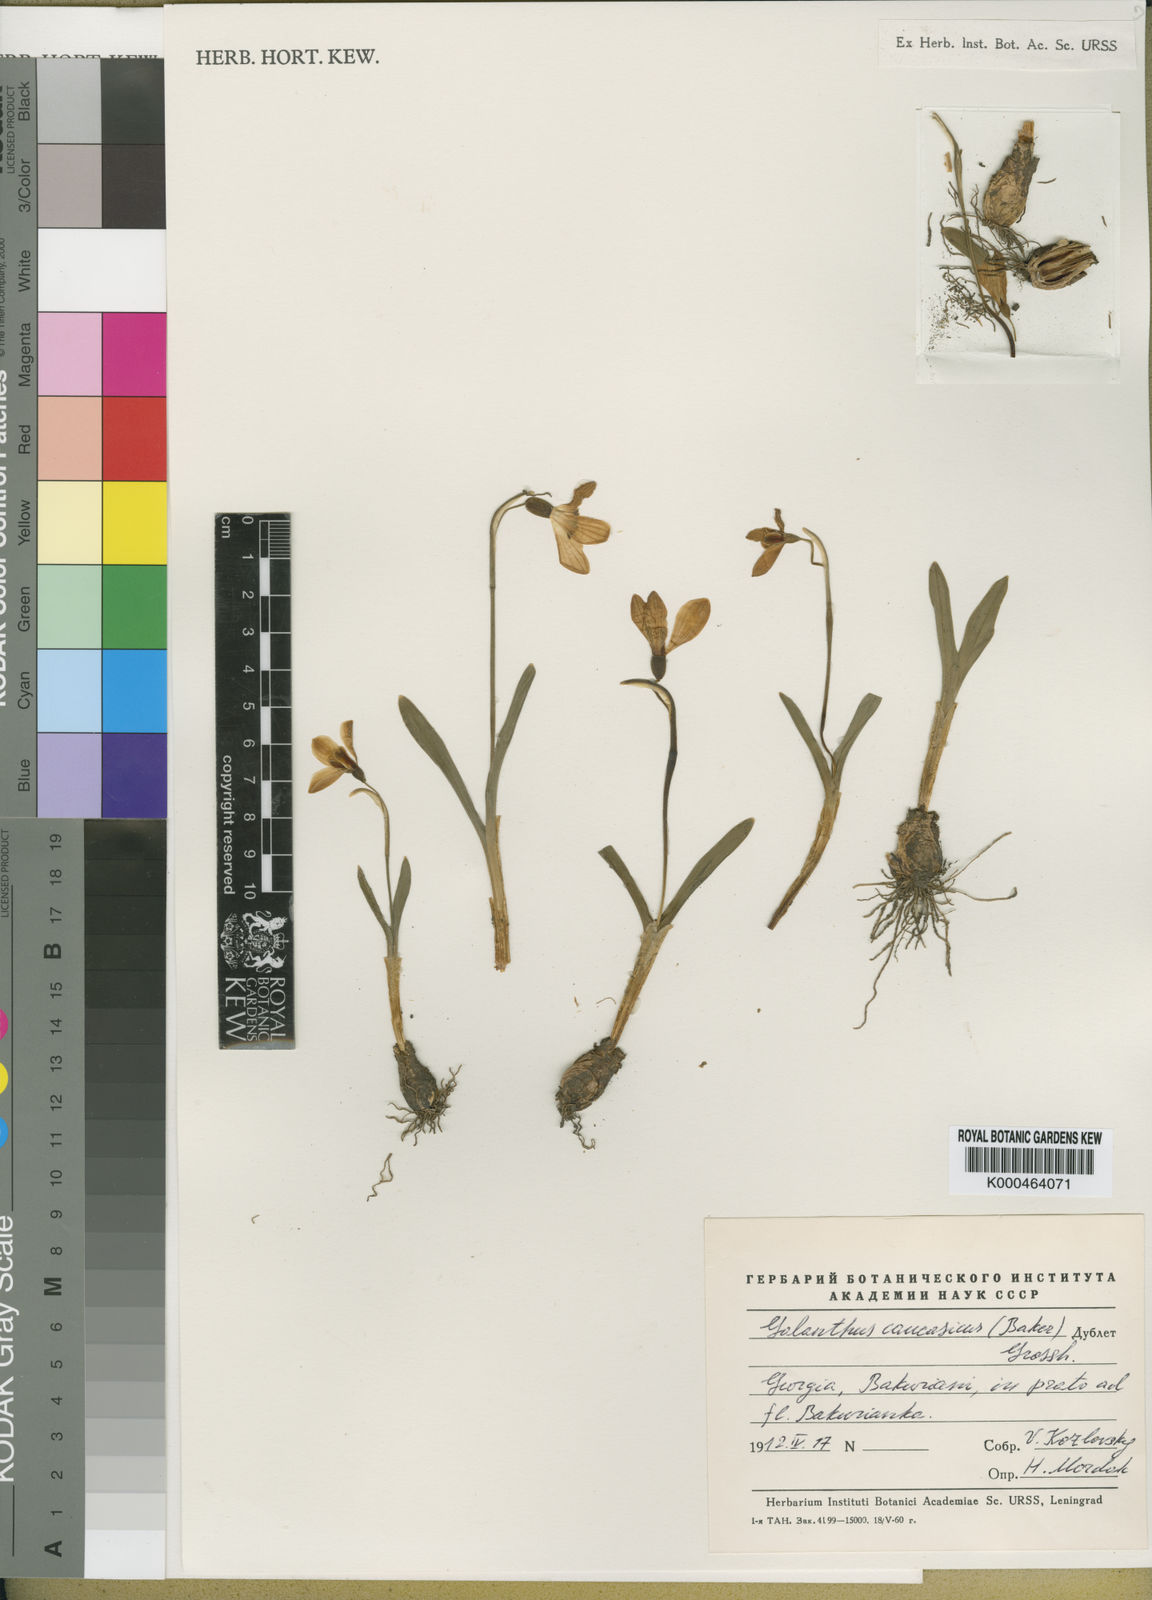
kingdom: Plantae
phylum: Tracheophyta
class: Liliopsida
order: Asparagales
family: Amaryllidaceae
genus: Galanthus
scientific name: Galanthus alpinus
